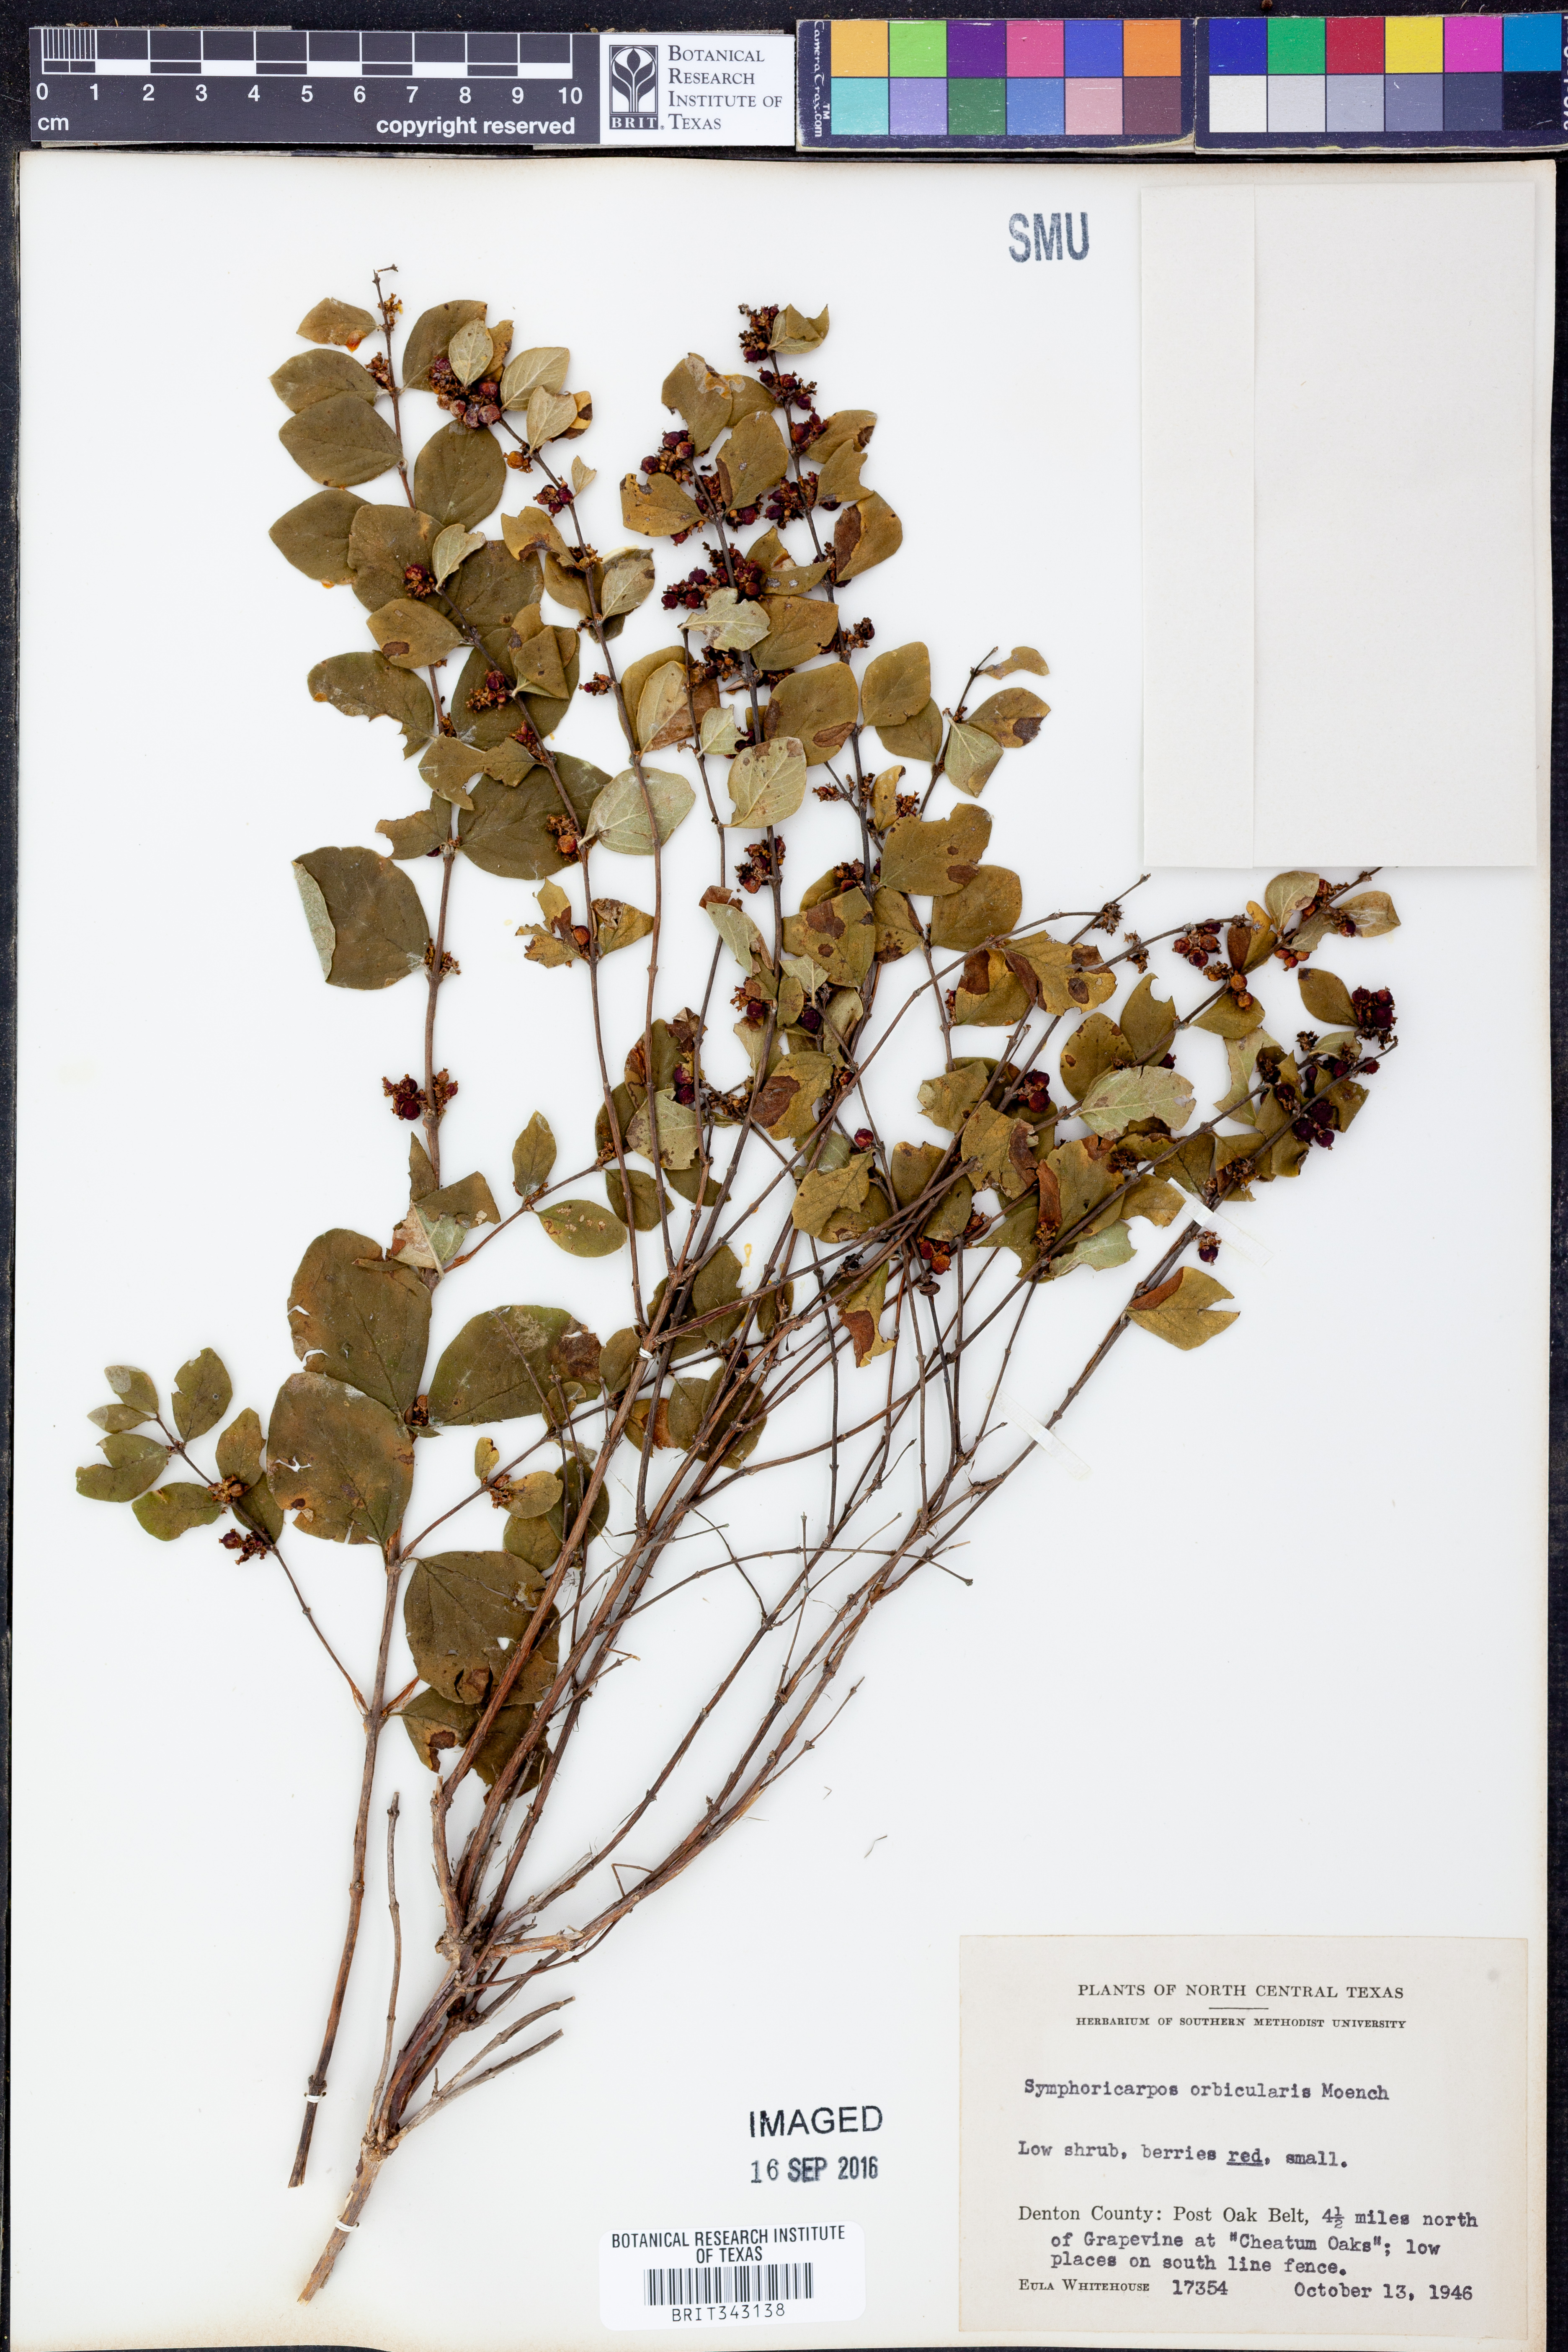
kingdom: Plantae
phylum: Tracheophyta
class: Magnoliopsida
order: Dipsacales
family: Caprifoliaceae
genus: Symphoricarpos
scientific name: Symphoricarpos orbiculatus
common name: Coralberry
